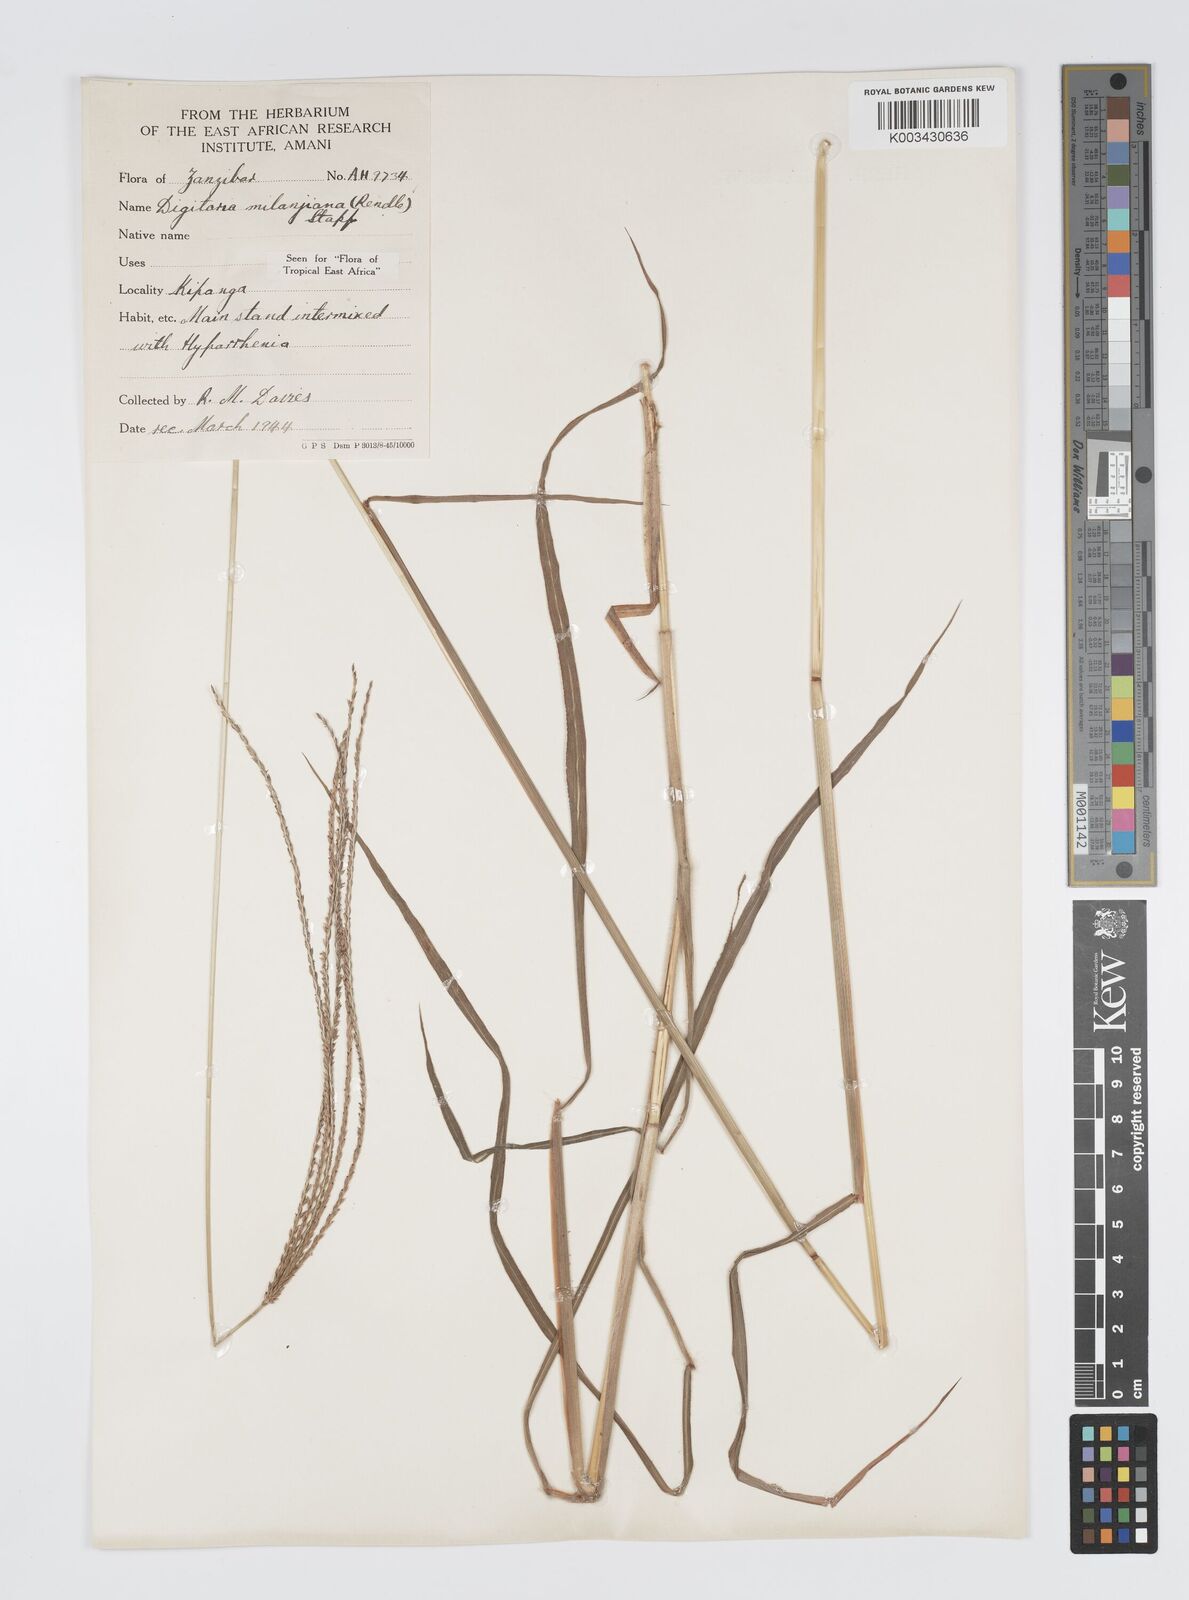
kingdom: Plantae
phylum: Tracheophyta
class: Liliopsida
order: Poales
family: Poaceae
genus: Digitaria
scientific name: Digitaria milanjiana
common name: Madagascar crabgrass
